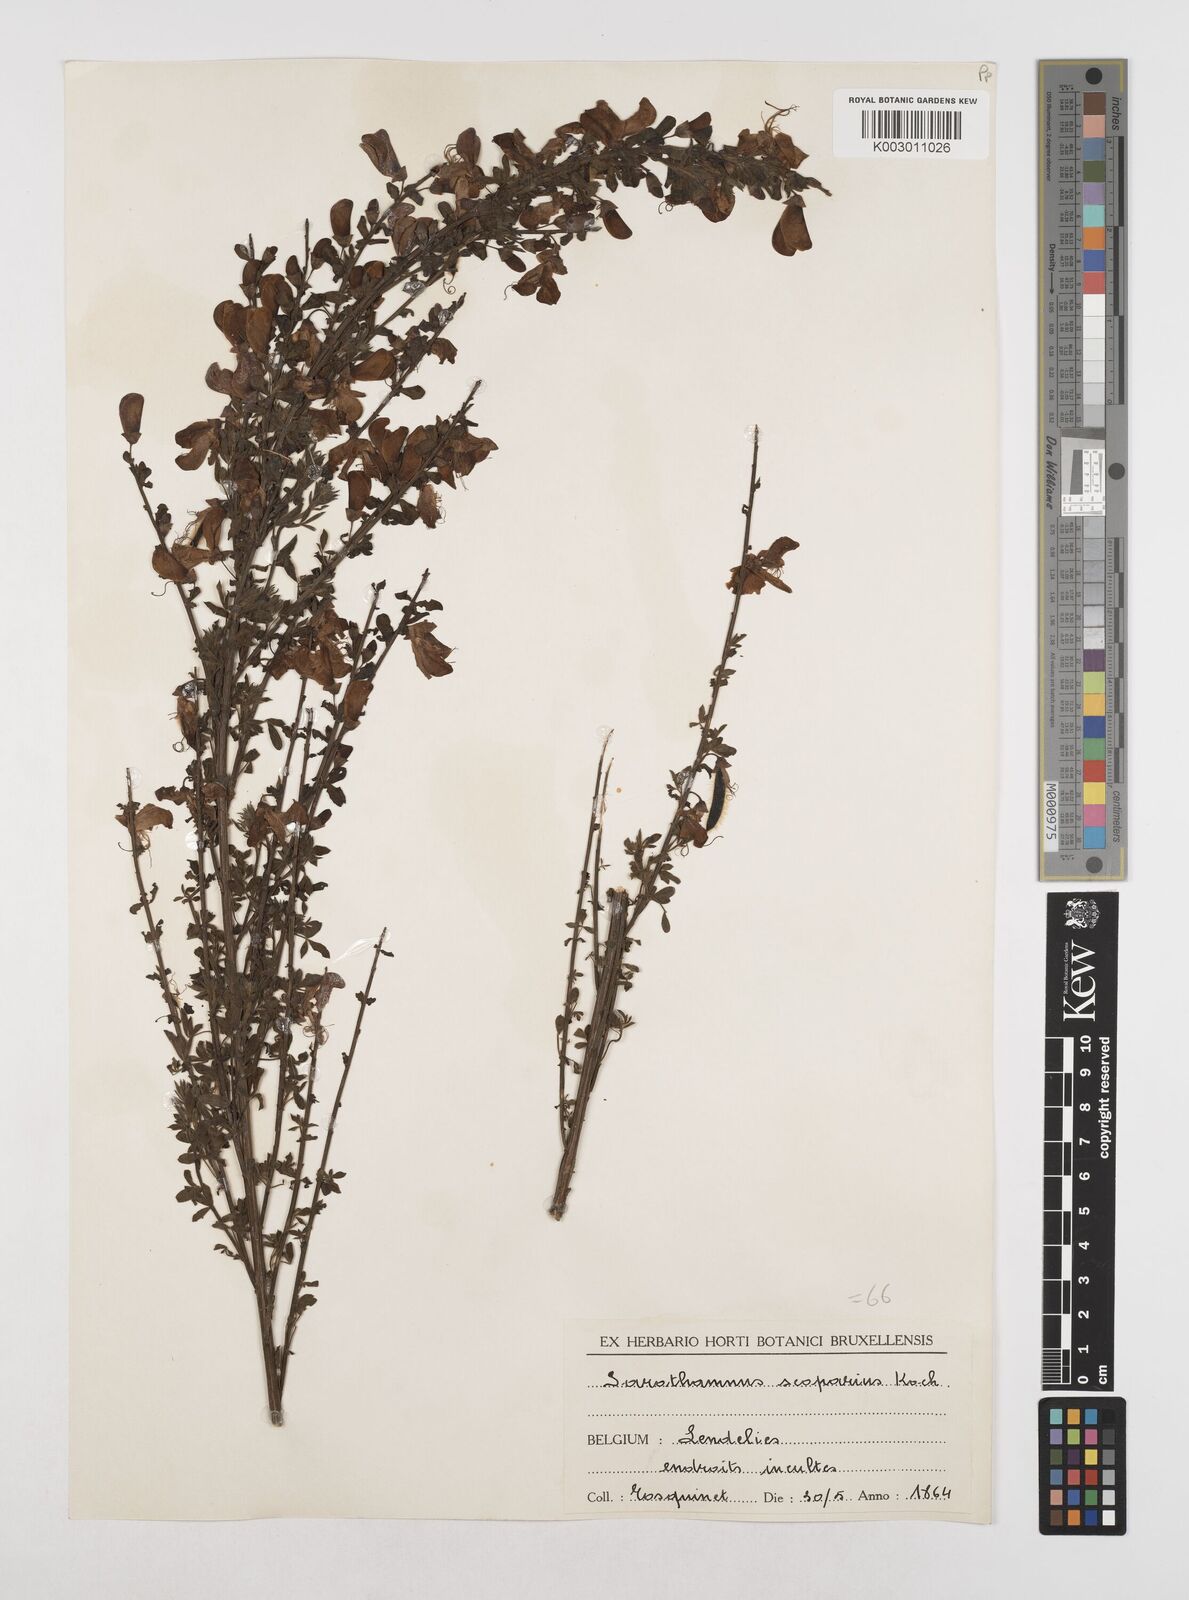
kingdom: Plantae
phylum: Tracheophyta
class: Magnoliopsida
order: Fabales
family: Fabaceae
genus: Cytisus
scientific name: Cytisus scoparius
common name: Scotch broom
